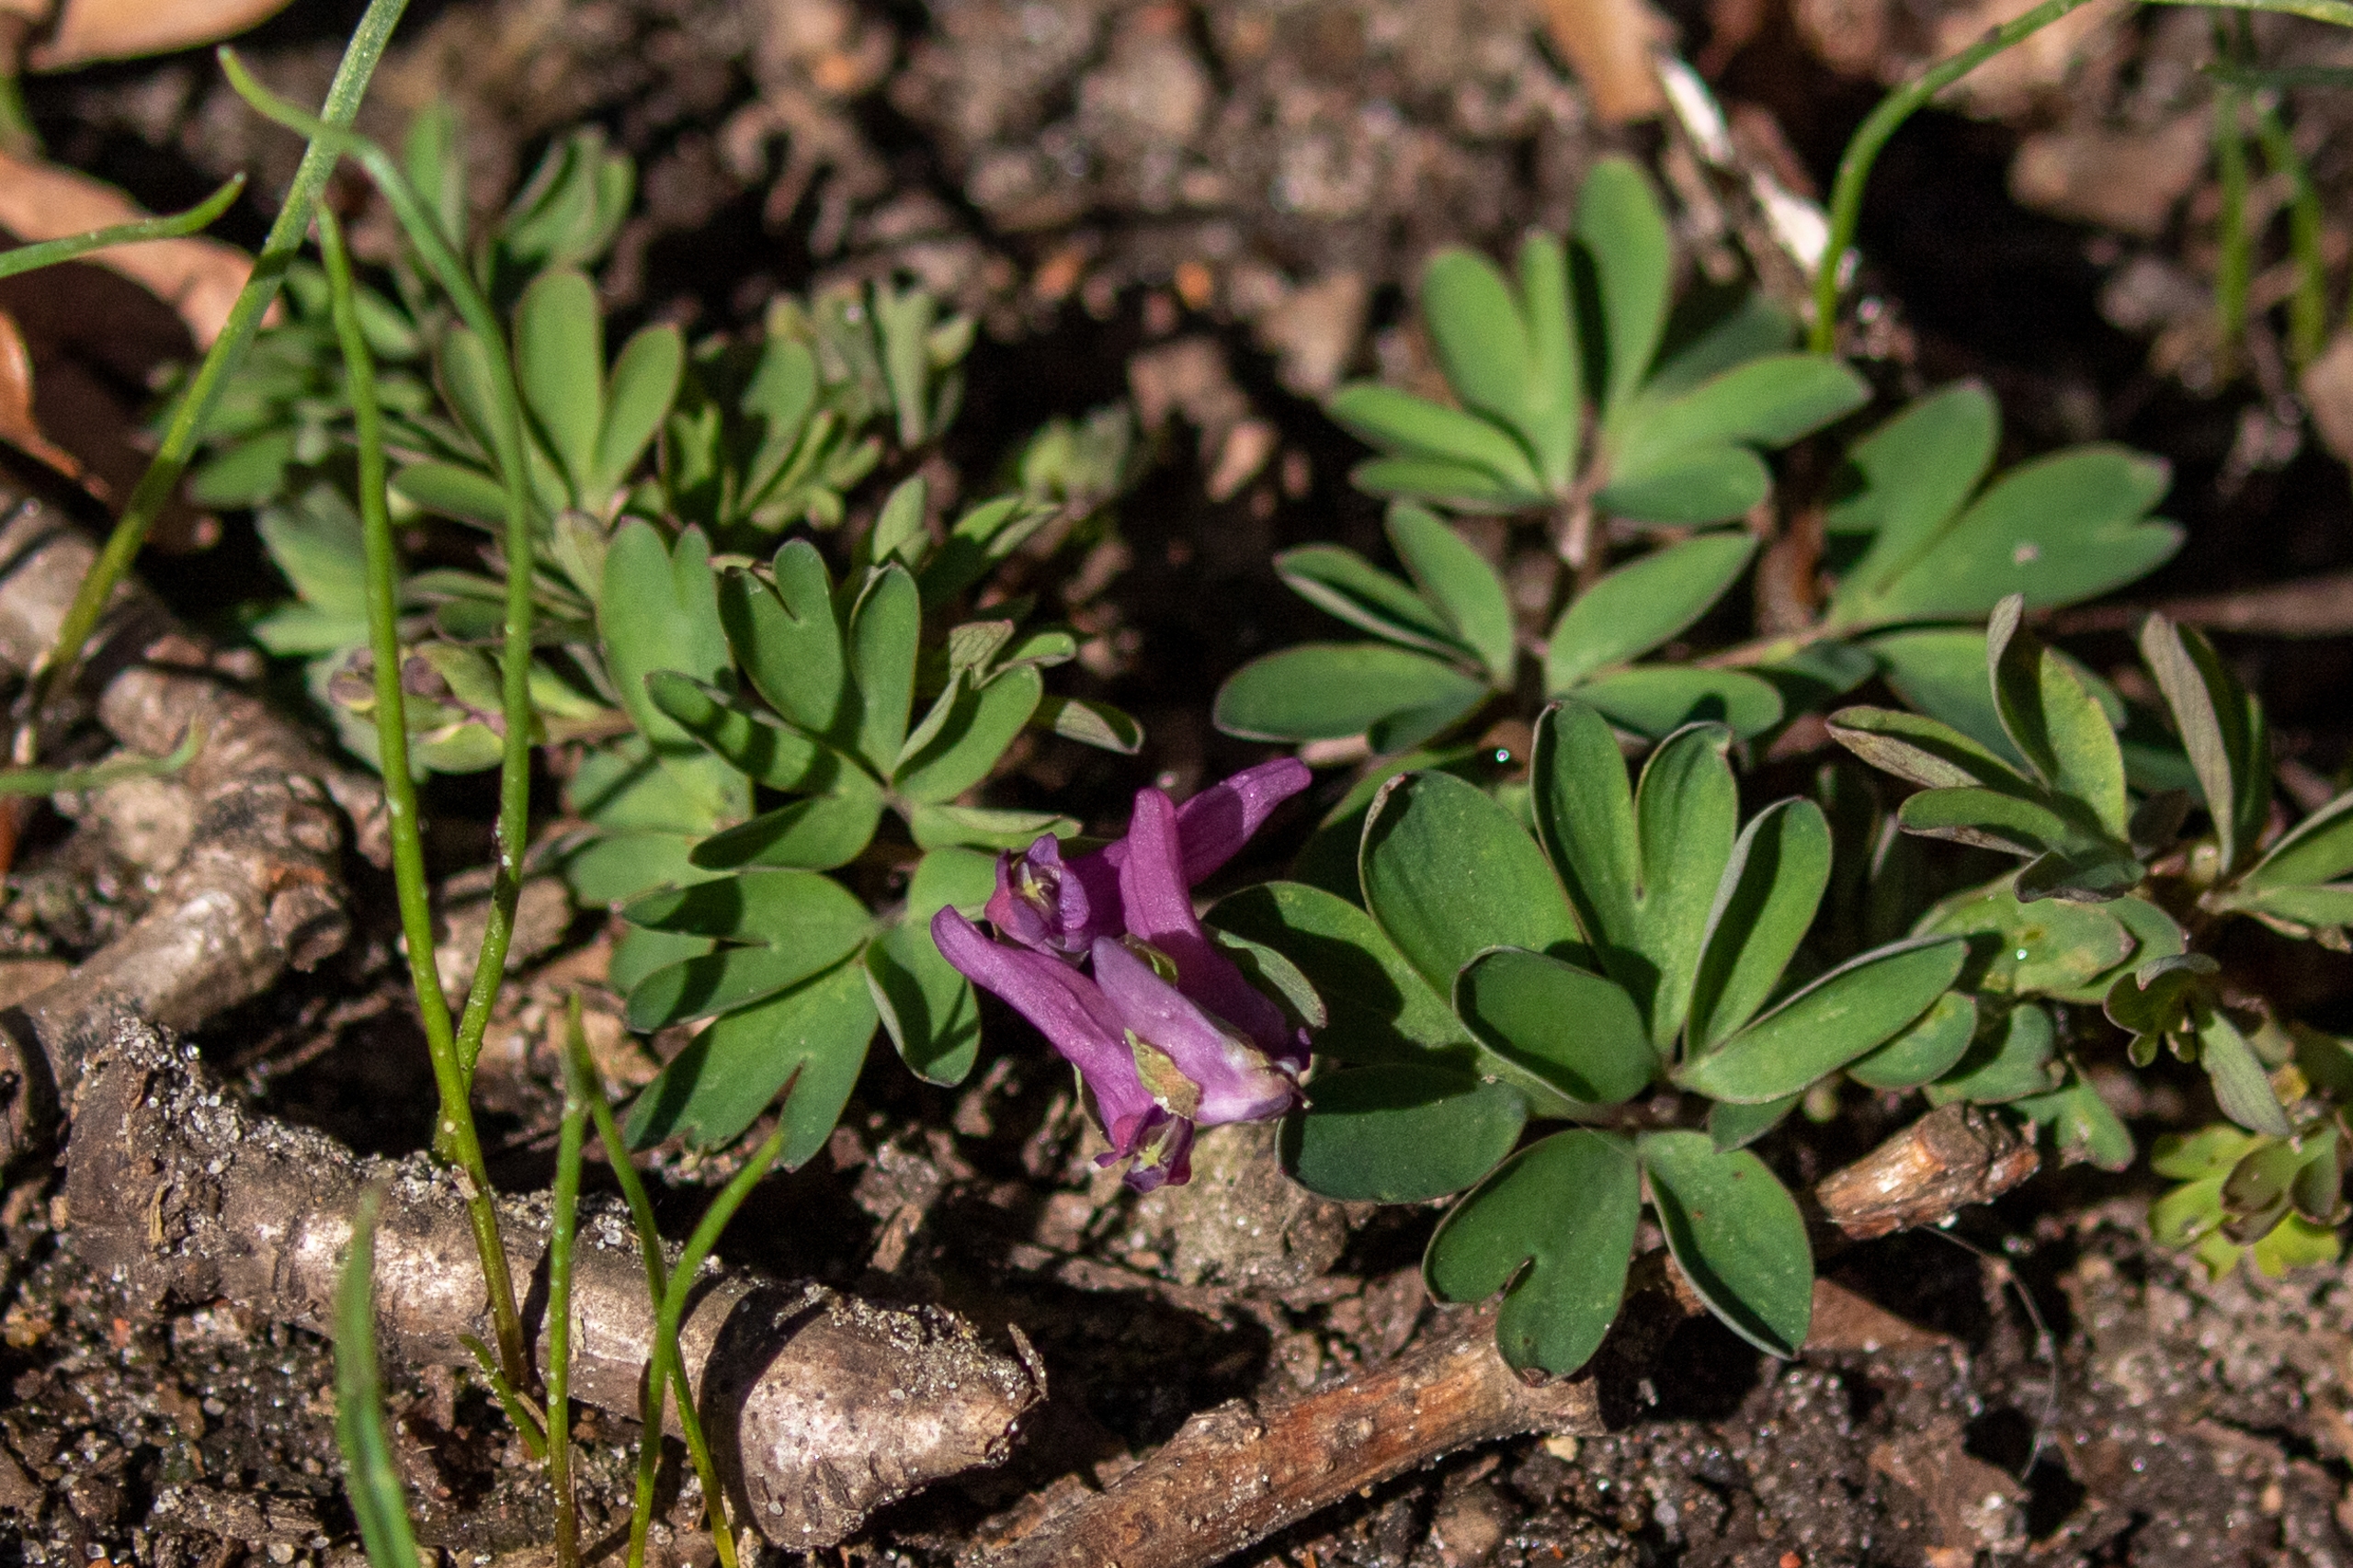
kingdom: Plantae
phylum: Tracheophyta
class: Magnoliopsida
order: Ranunculales
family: Papaveraceae
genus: Corydalis
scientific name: Corydalis intermedia
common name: Liden lærkespore
